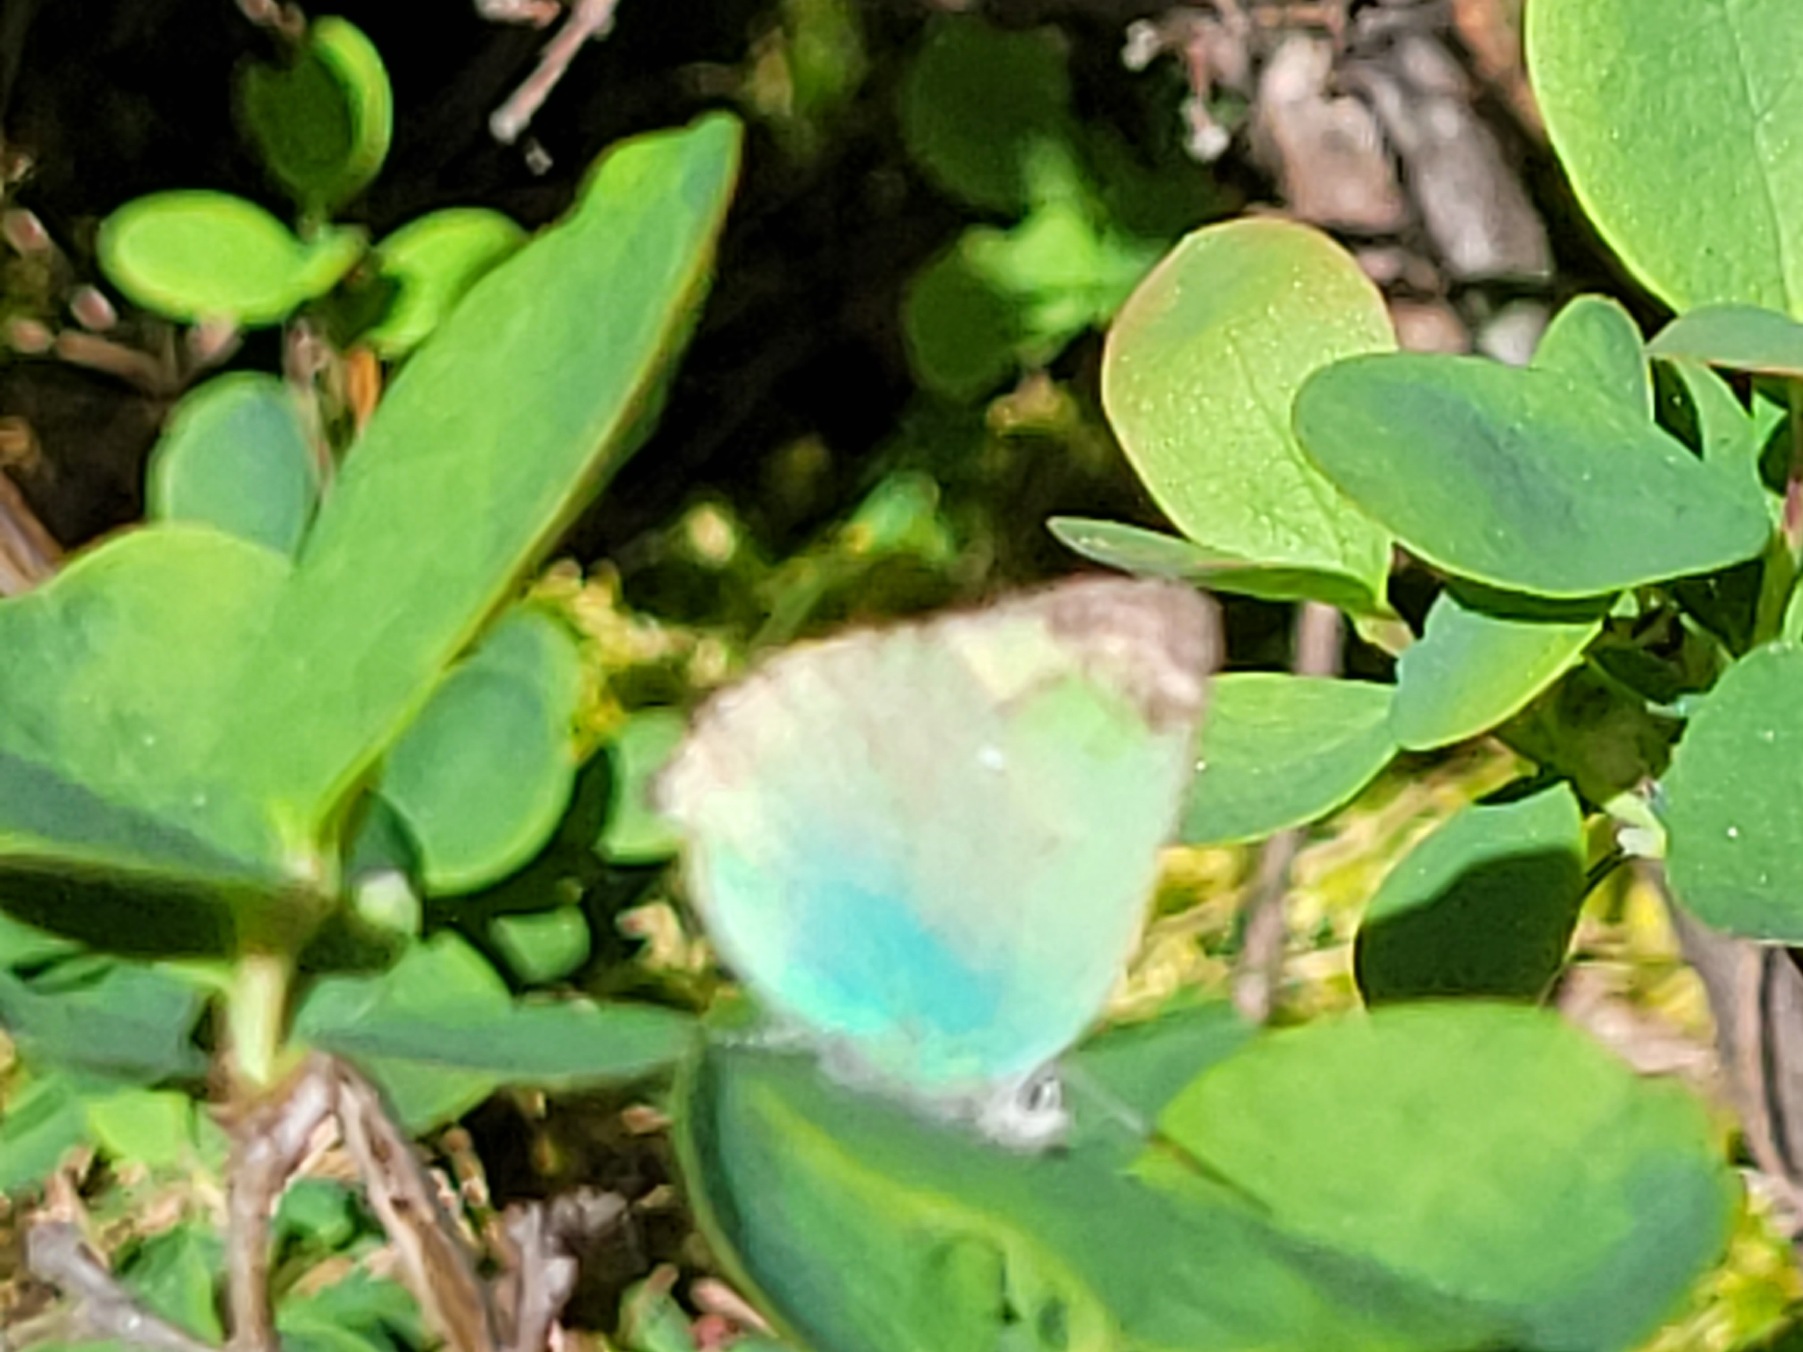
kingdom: Animalia
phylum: Arthropoda
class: Insecta
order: Lepidoptera
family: Lycaenidae
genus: Callophrys
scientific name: Callophrys rubi
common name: Grøn busksommerfugl
